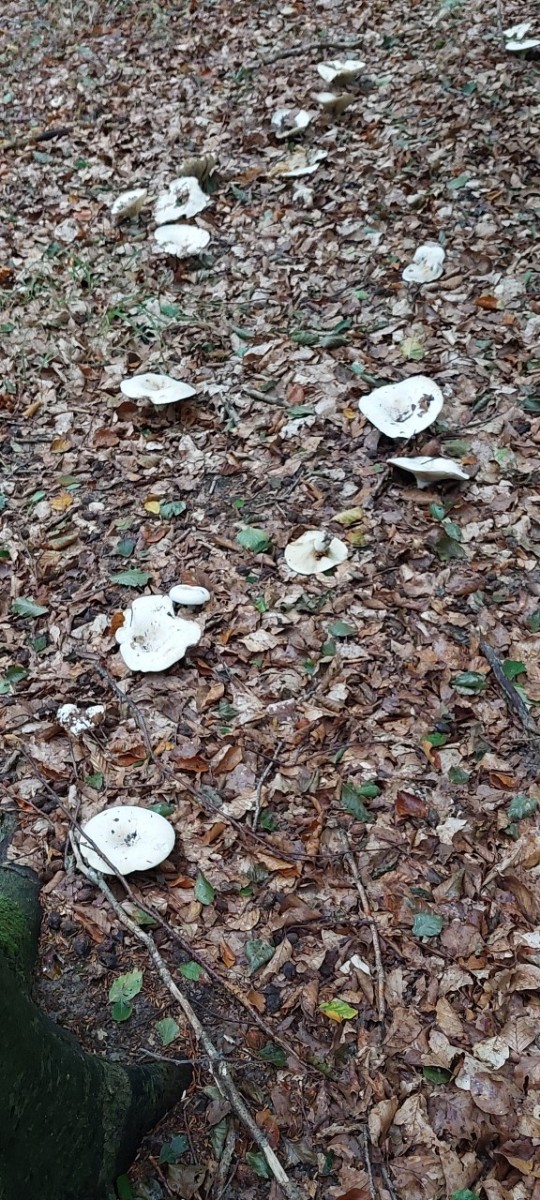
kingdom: Fungi
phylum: Basidiomycota
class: Agaricomycetes
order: Russulales
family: Russulaceae
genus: Lactifluus
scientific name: Lactifluus
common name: mælkehat
